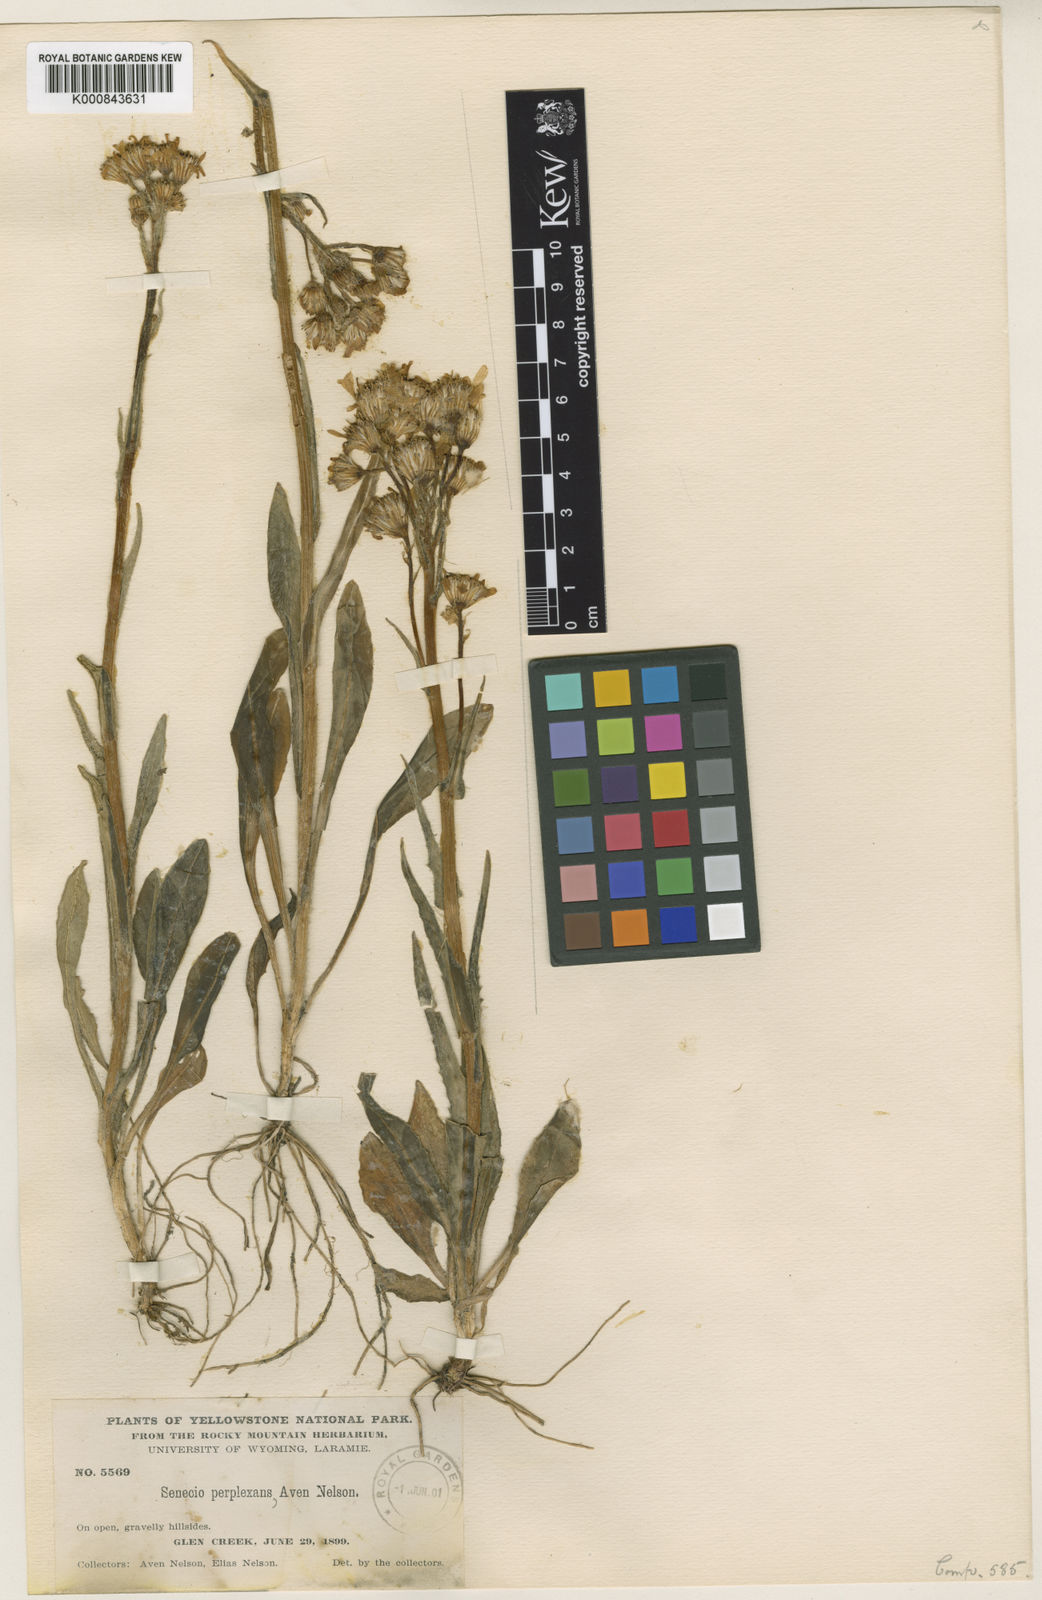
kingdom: Plantae
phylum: Tracheophyta
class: Magnoliopsida
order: Asterales
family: Asteraceae
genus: Senecio
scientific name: Senecio integerrimus
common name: Gaugeplant
